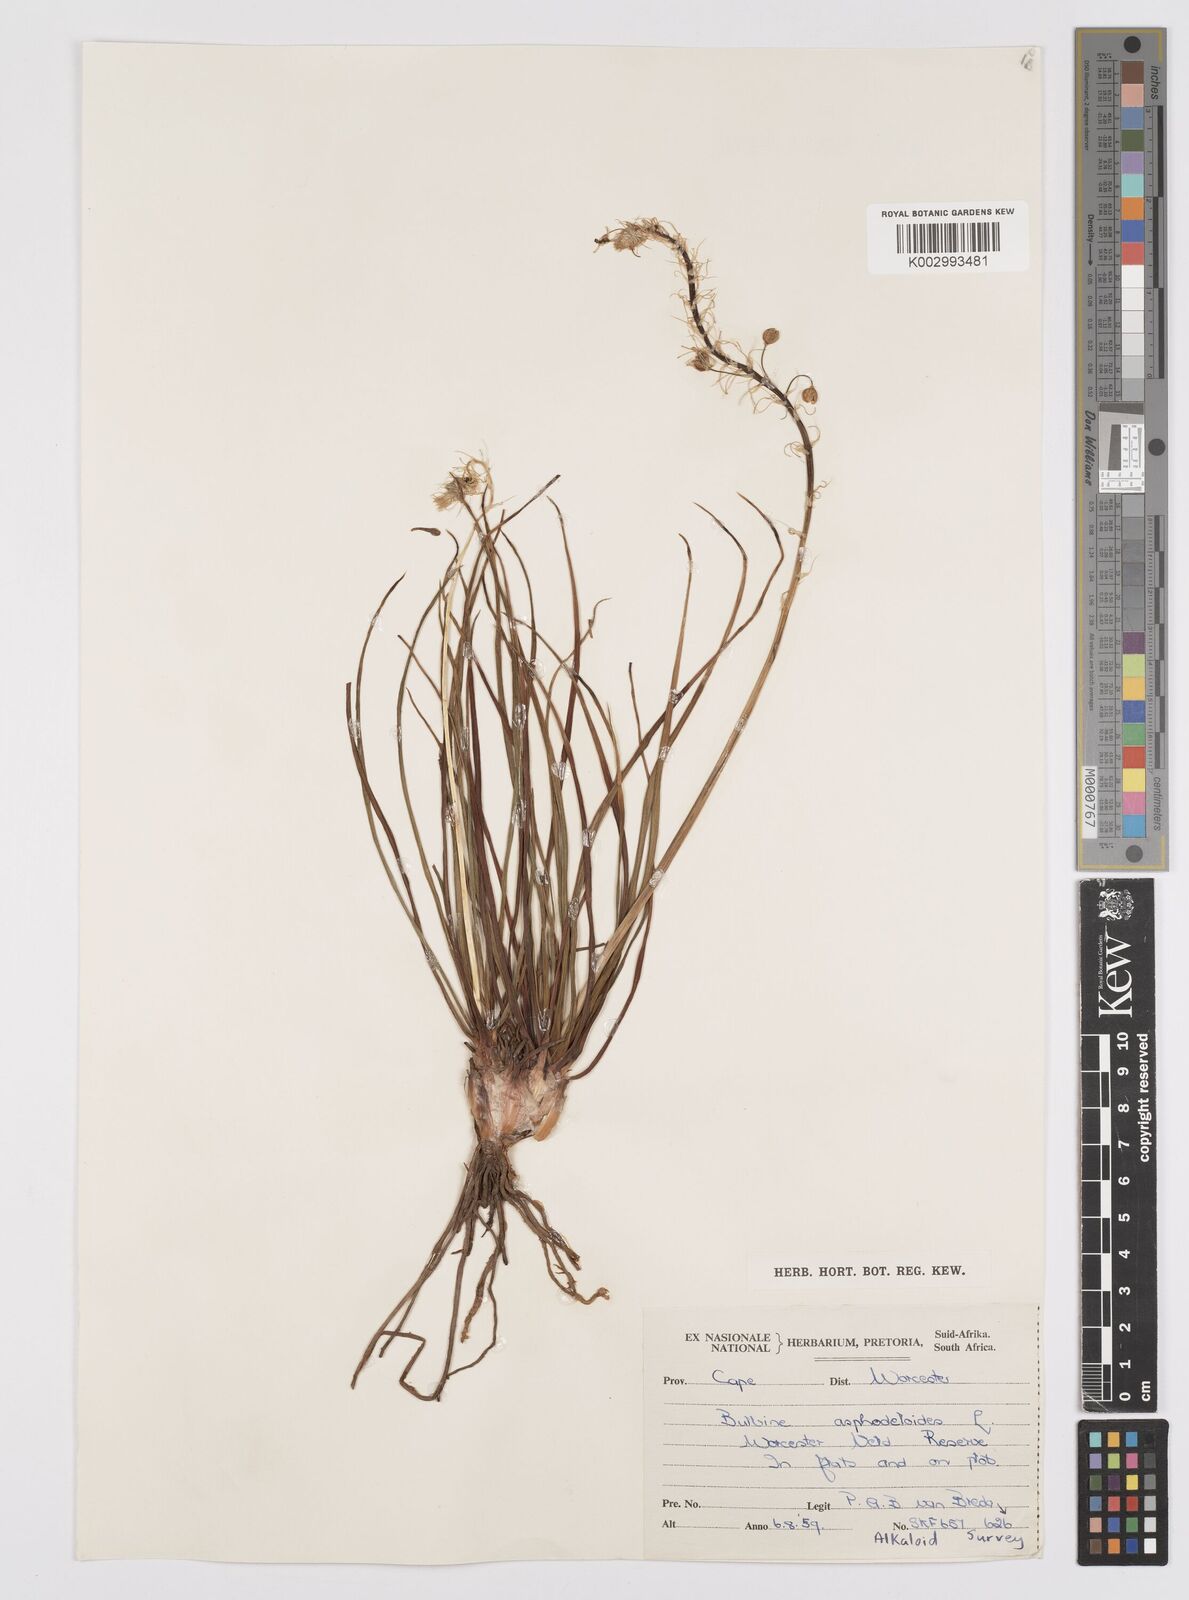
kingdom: Plantae
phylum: Tracheophyta
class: Liliopsida
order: Asparagales
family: Asphodelaceae
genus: Bulbine
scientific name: Bulbine lagopus
